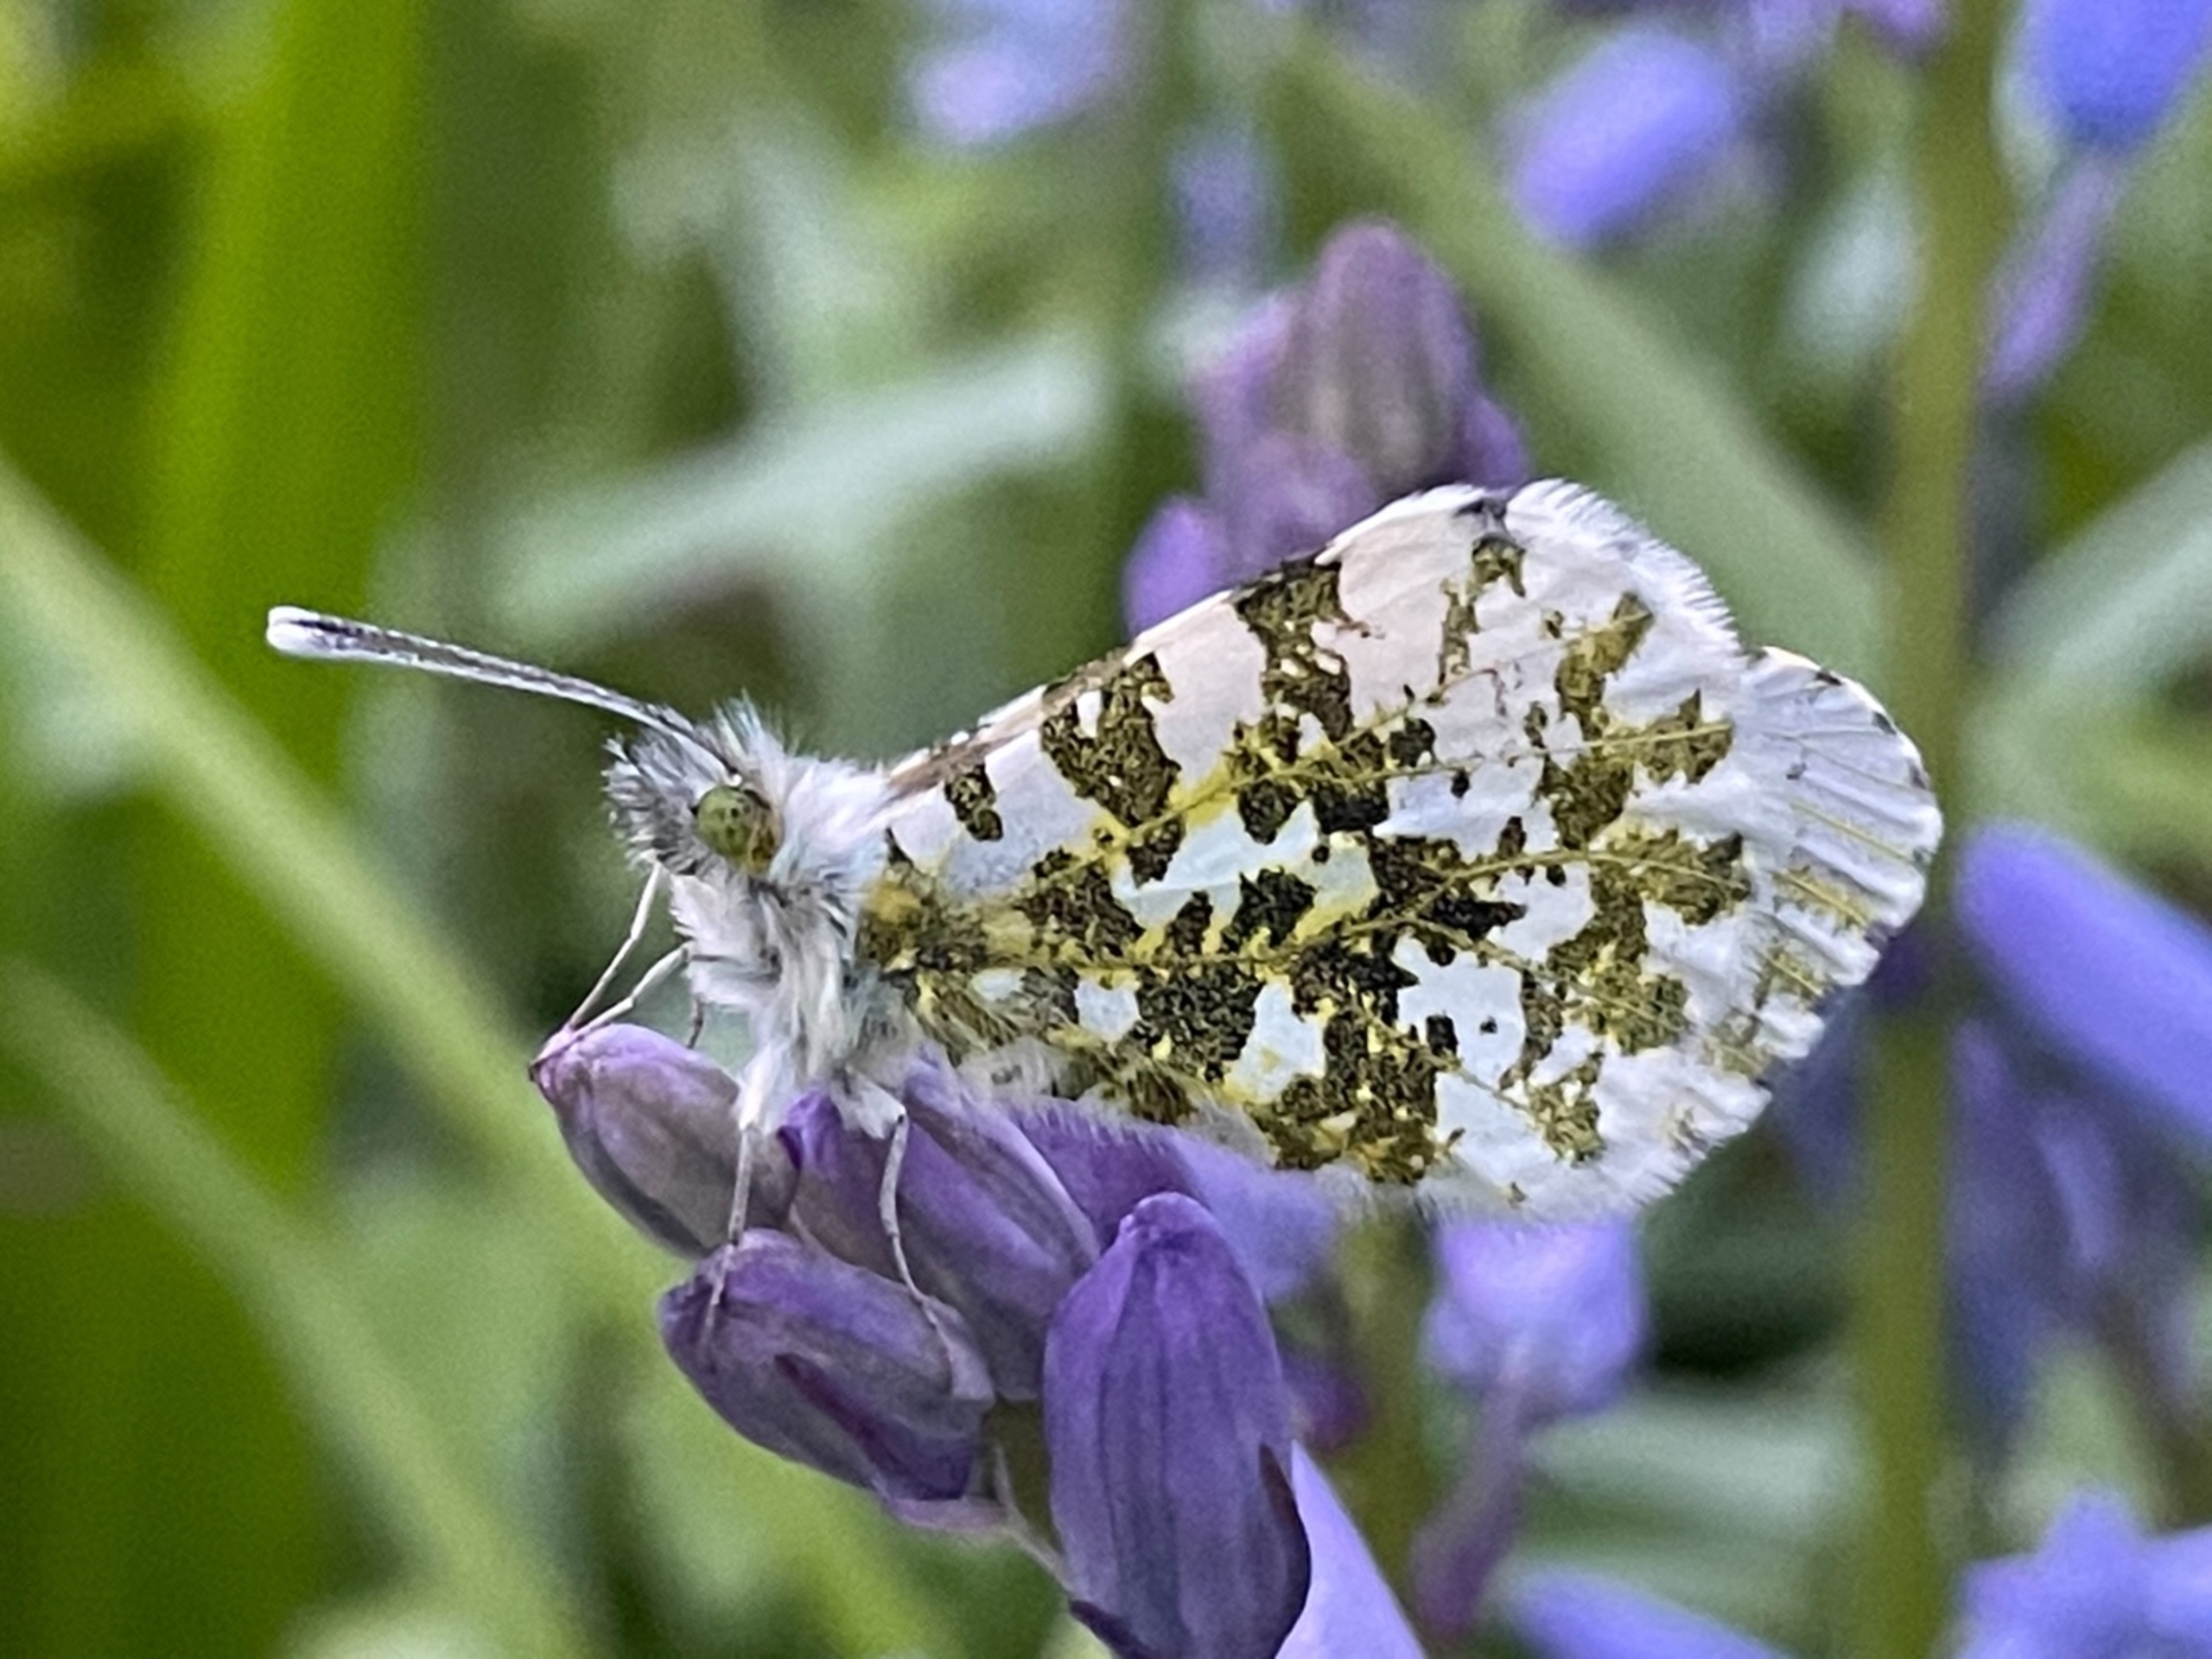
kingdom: Animalia
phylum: Arthropoda
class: Insecta
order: Lepidoptera
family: Pieridae
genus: Anthocharis
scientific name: Anthocharis cardamines
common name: Aurora
